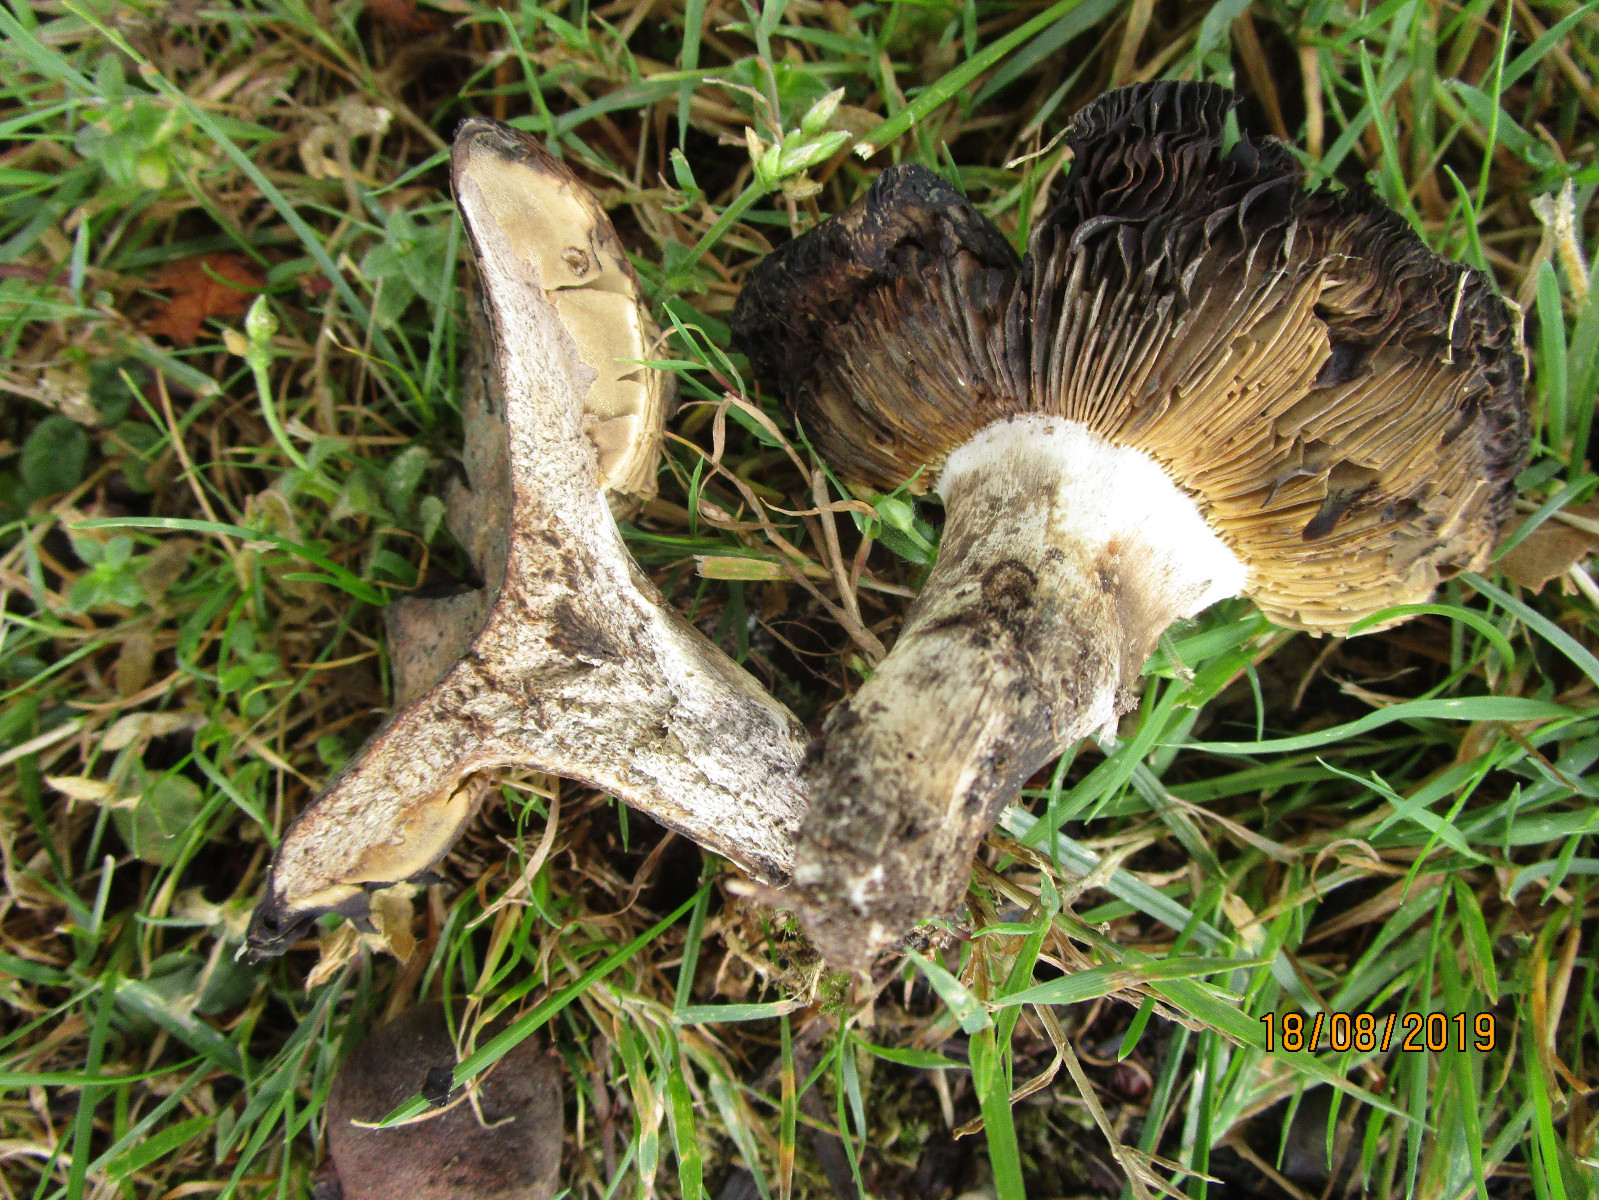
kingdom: Fungi
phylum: Basidiomycota
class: Agaricomycetes
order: Russulales
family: Russulaceae
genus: Russula
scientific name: Russula seperina
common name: rødmende skørhat
